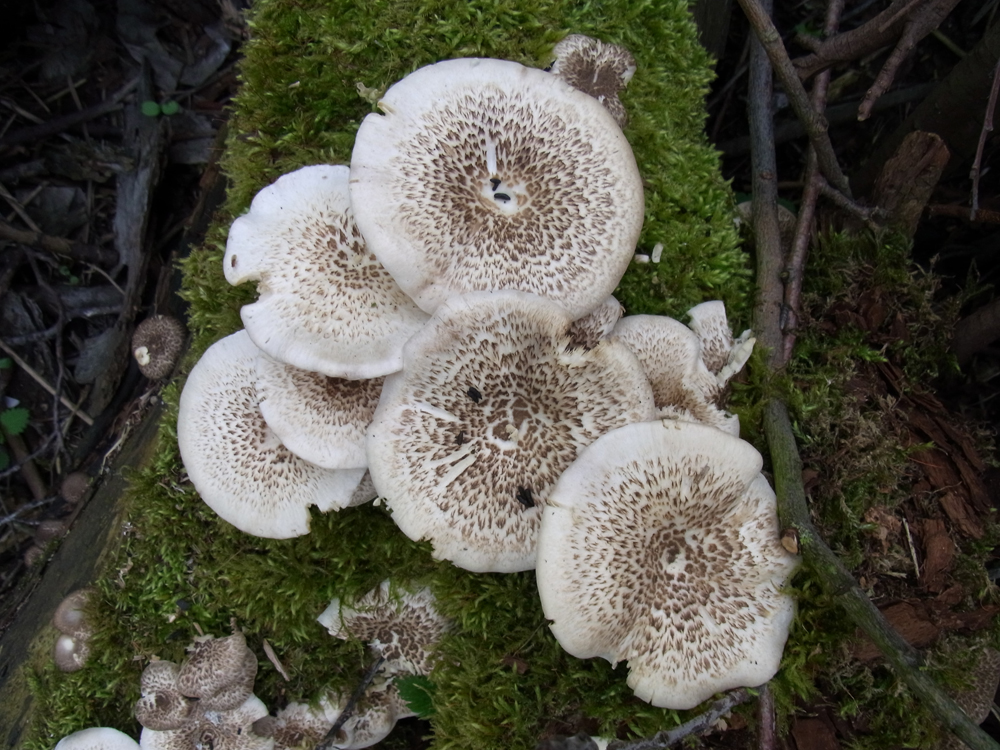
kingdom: Fungi
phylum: Basidiomycota
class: Agaricomycetes
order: Polyporales
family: Polyporaceae
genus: Lentinus
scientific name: Lentinus tigrinus
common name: Tiger sawgill
